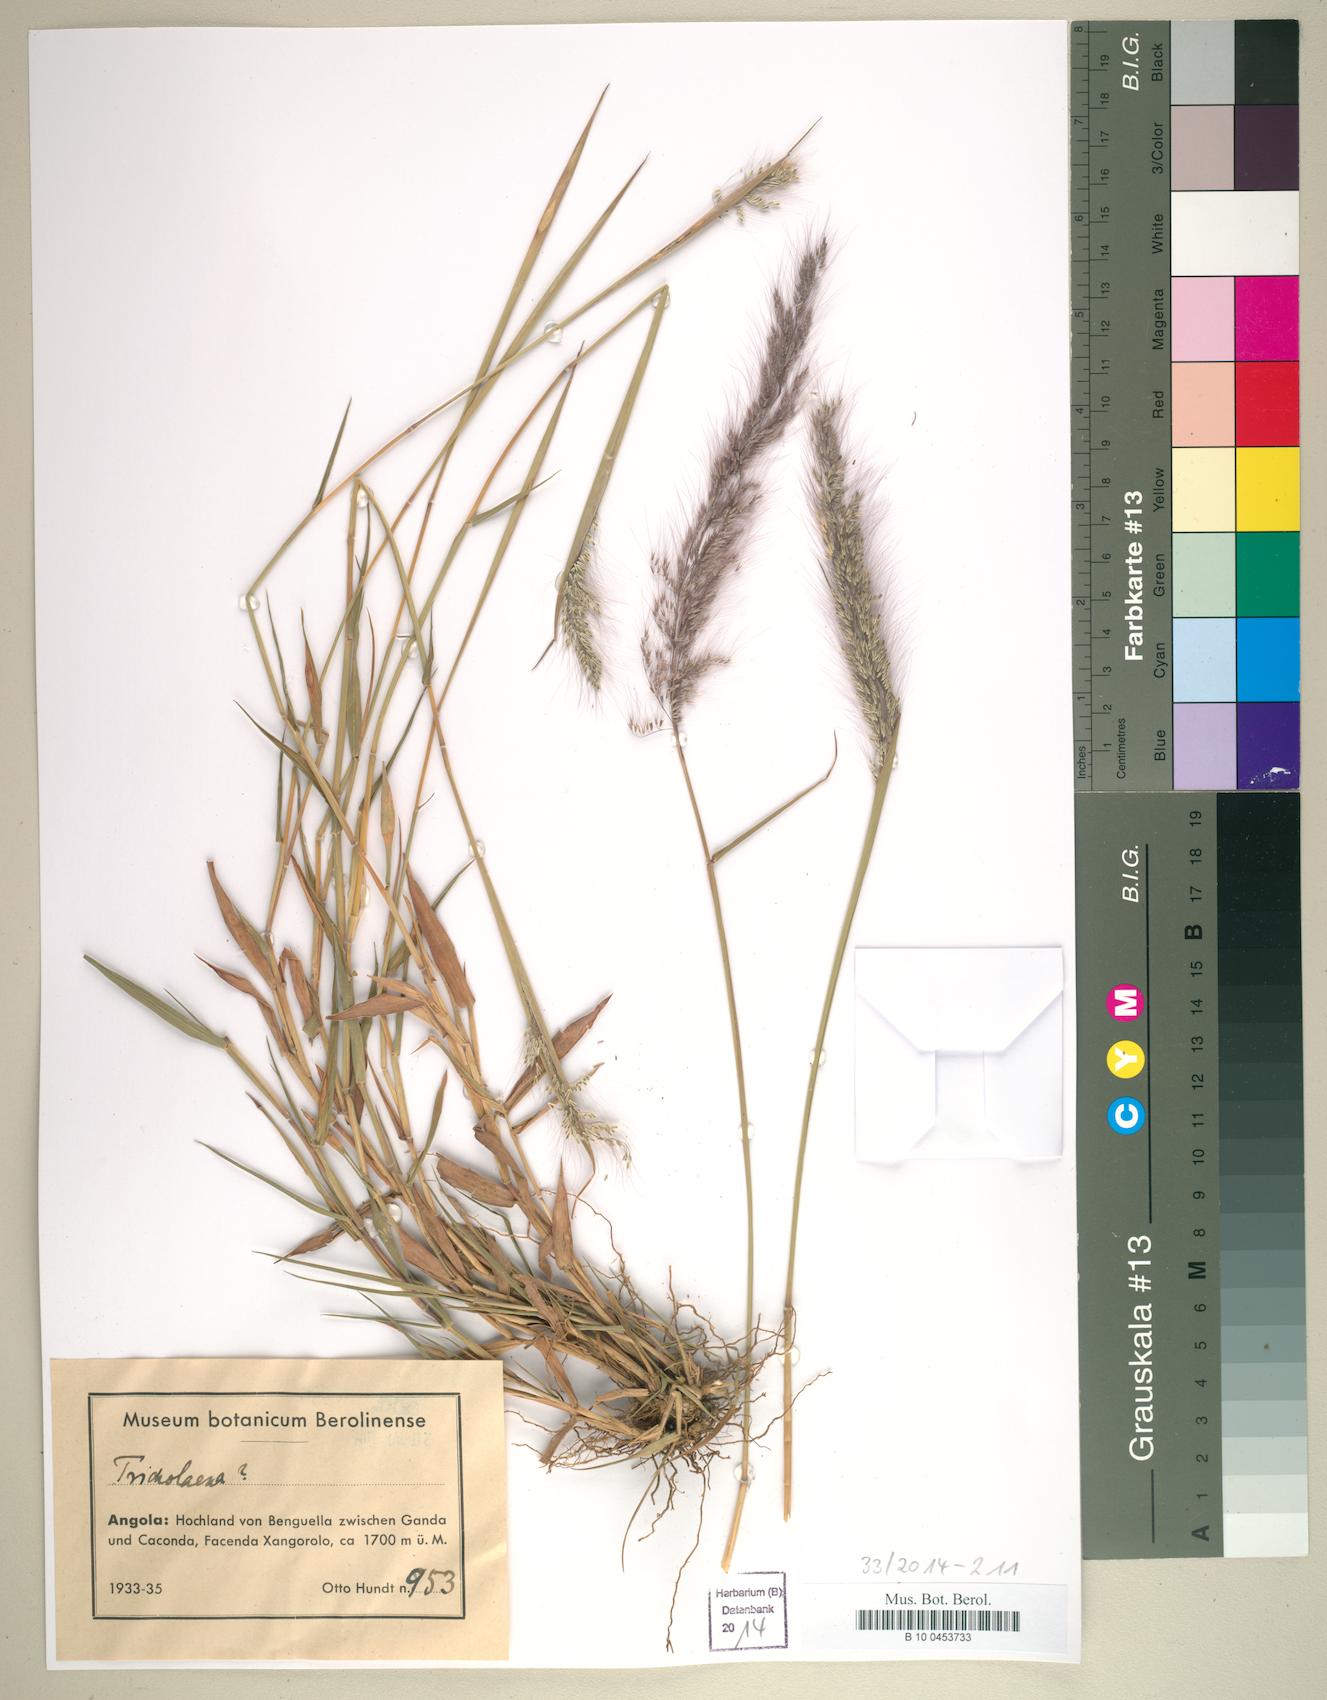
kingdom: Plantae
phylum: Tracheophyta
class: Liliopsida
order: Poales
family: Poaceae
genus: Tricholaena
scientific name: Tricholaena
